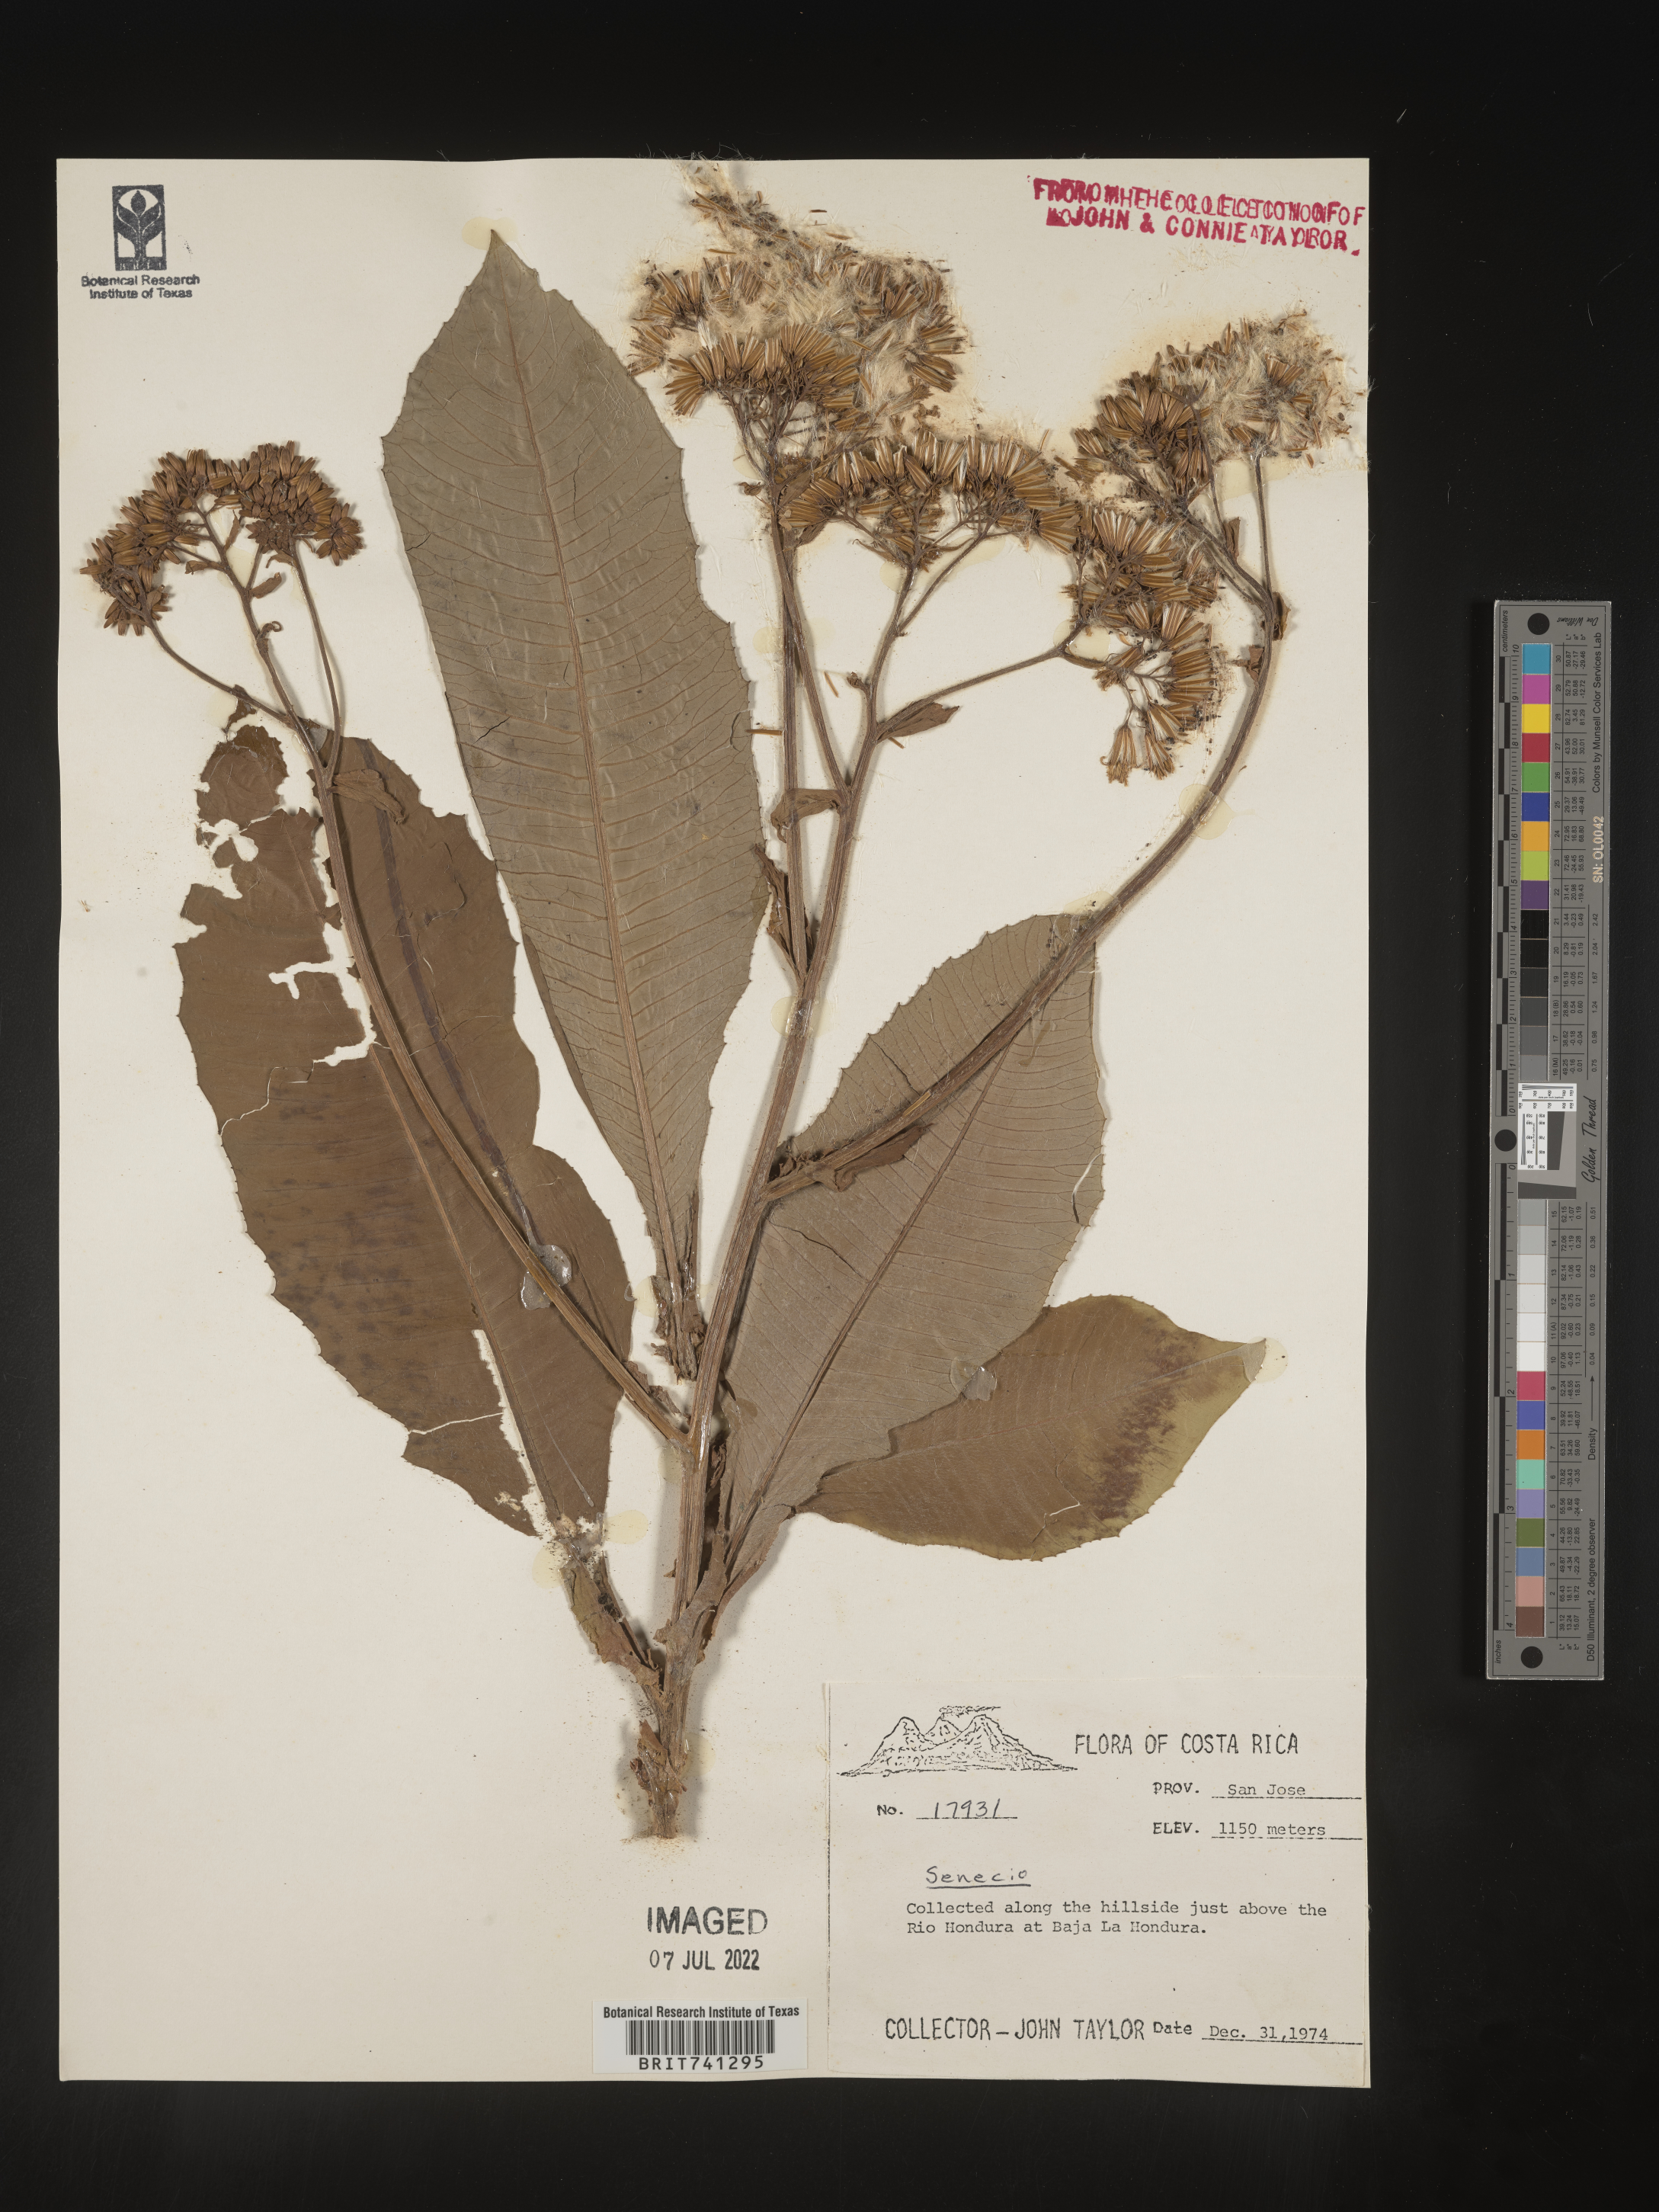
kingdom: Plantae
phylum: Tracheophyta
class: Magnoliopsida
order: Asterales
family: Asteraceae
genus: Senecio
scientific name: Senecio
